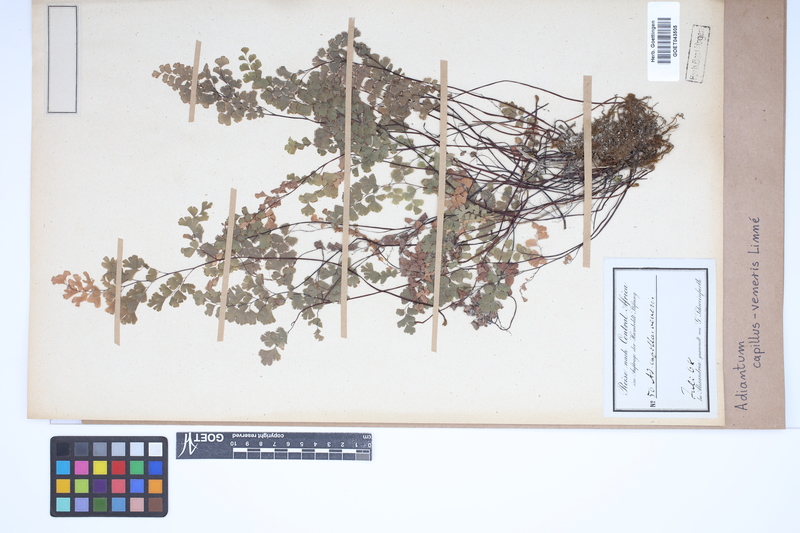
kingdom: Plantae
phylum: Tracheophyta
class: Polypodiopsida
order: Polypodiales
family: Pteridaceae
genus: Adiantum
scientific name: Adiantum capillus-veneris
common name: Maidenhair fern
